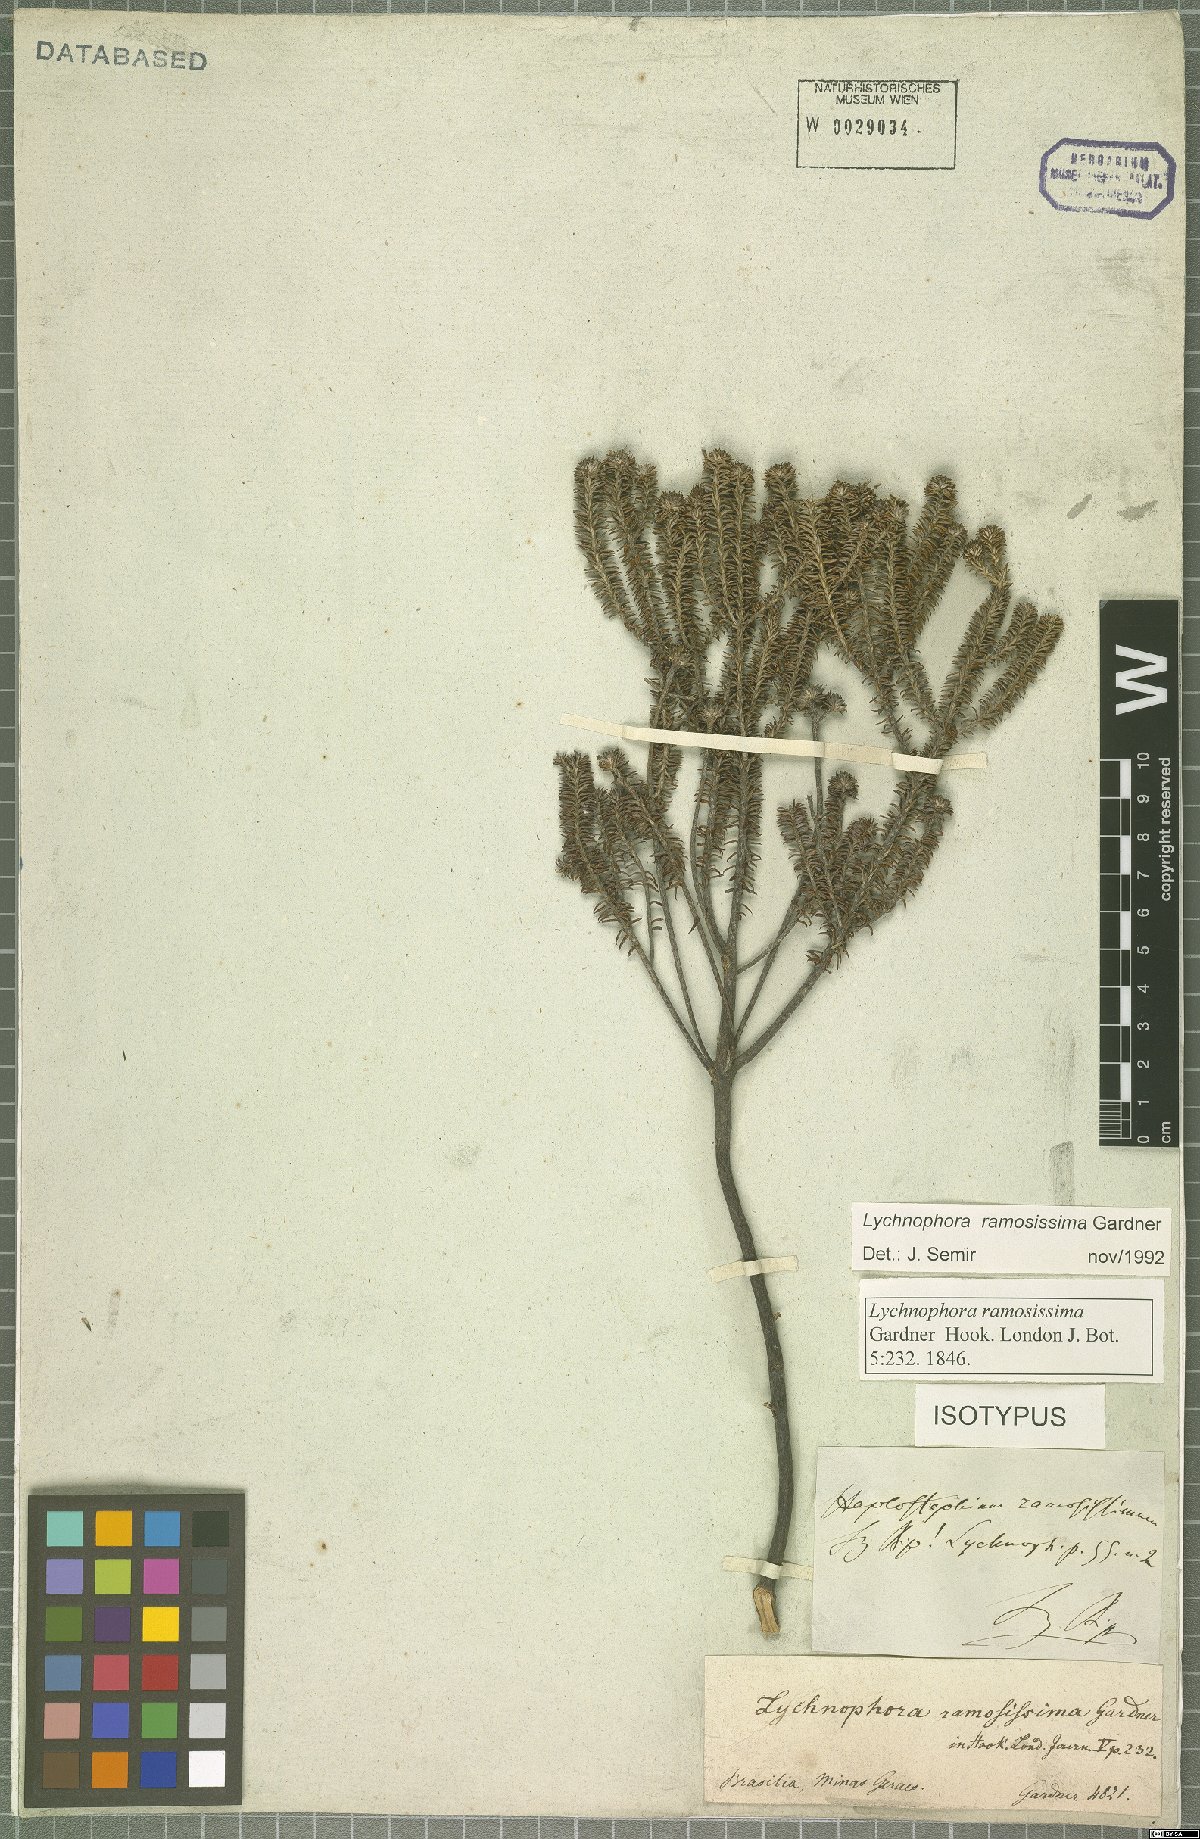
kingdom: Plantae
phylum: Tracheophyta
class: Magnoliopsida
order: Asterales
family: Asteraceae
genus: Lychnophora
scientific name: Lychnophora ramosissima
